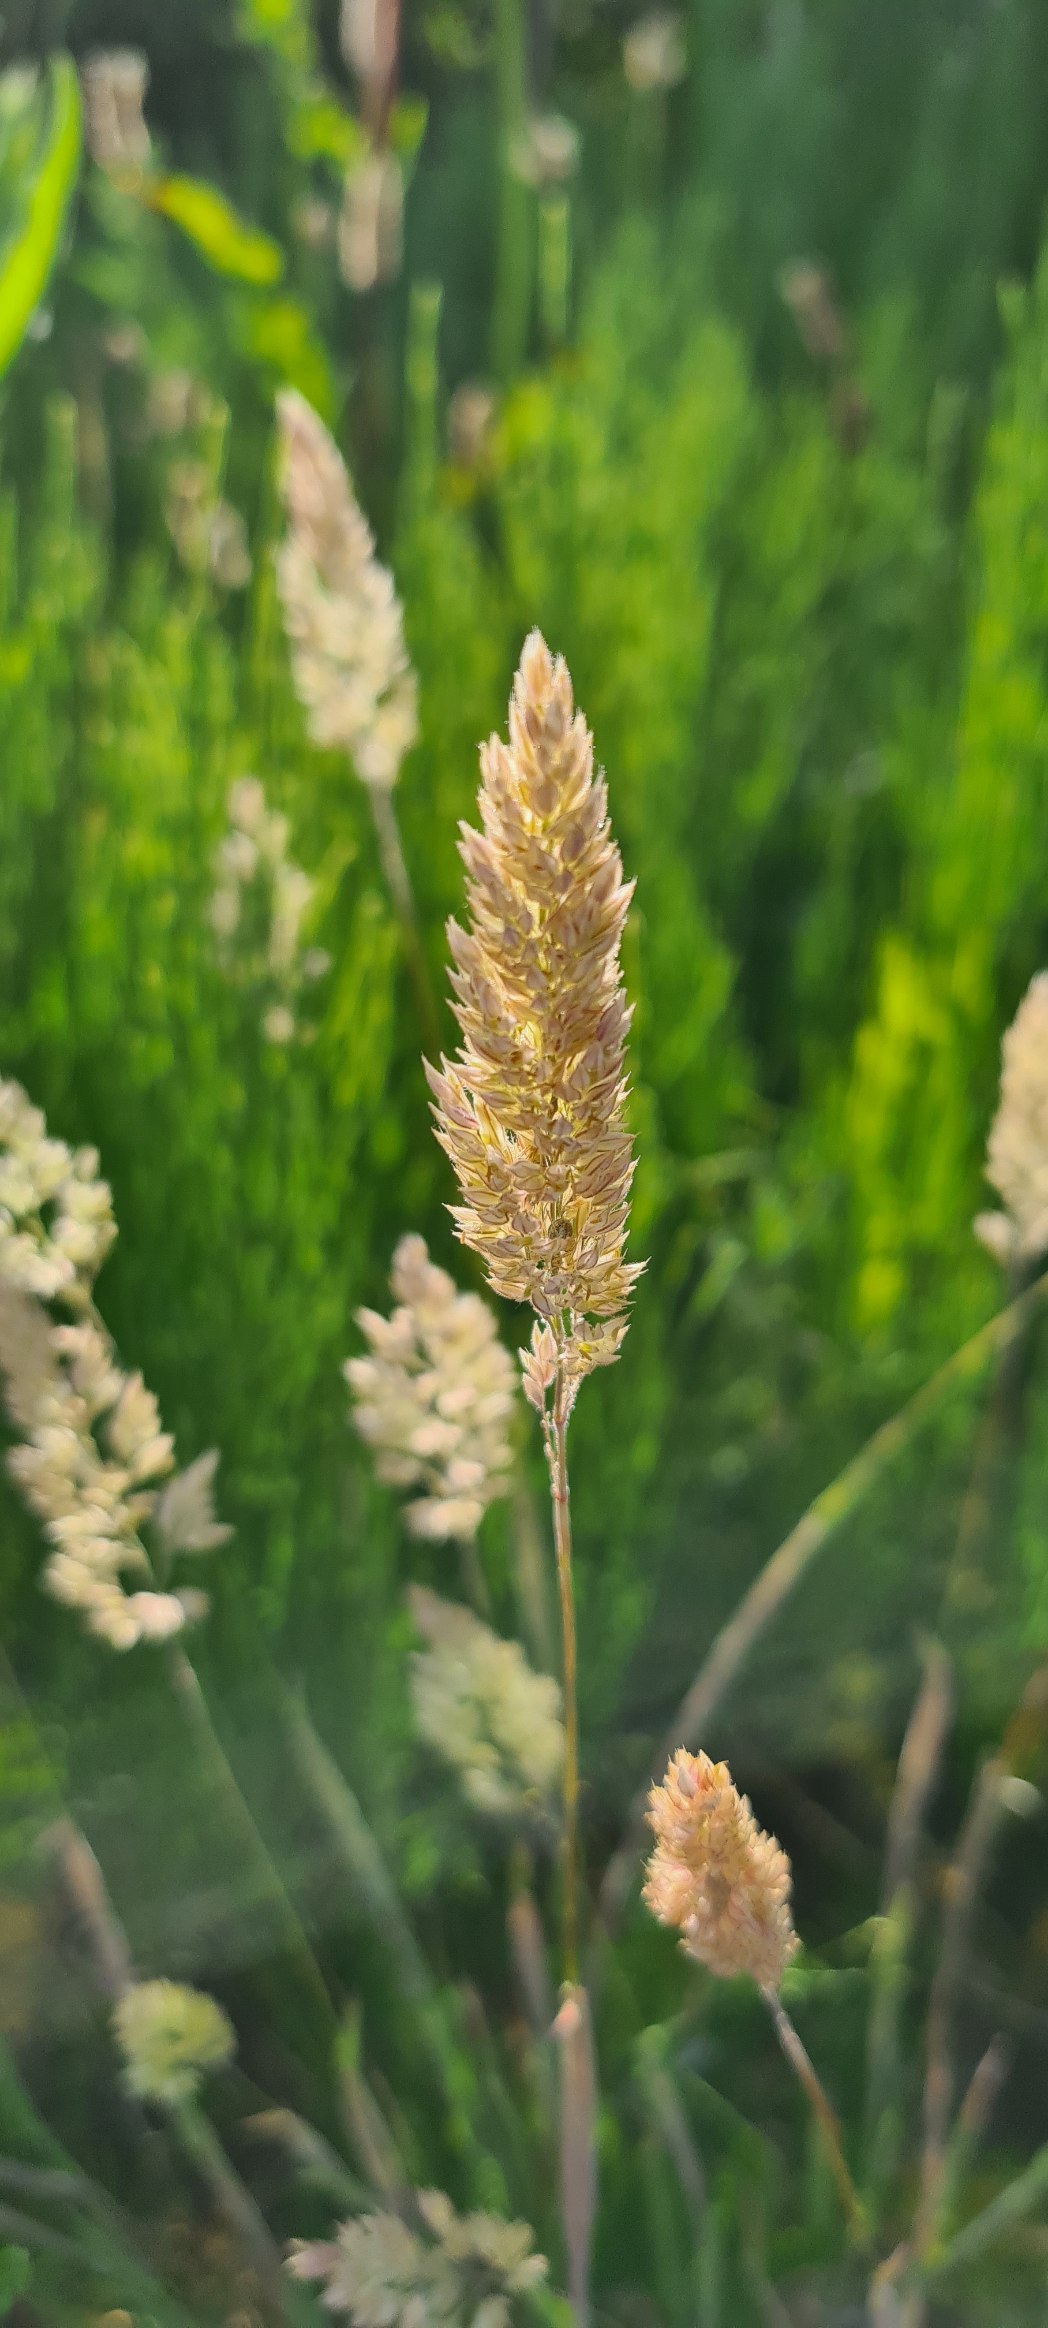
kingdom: Plantae
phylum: Tracheophyta
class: Liliopsida
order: Poales
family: Poaceae
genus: Holcus
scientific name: Holcus lanatus
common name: Fløjlsgræs
